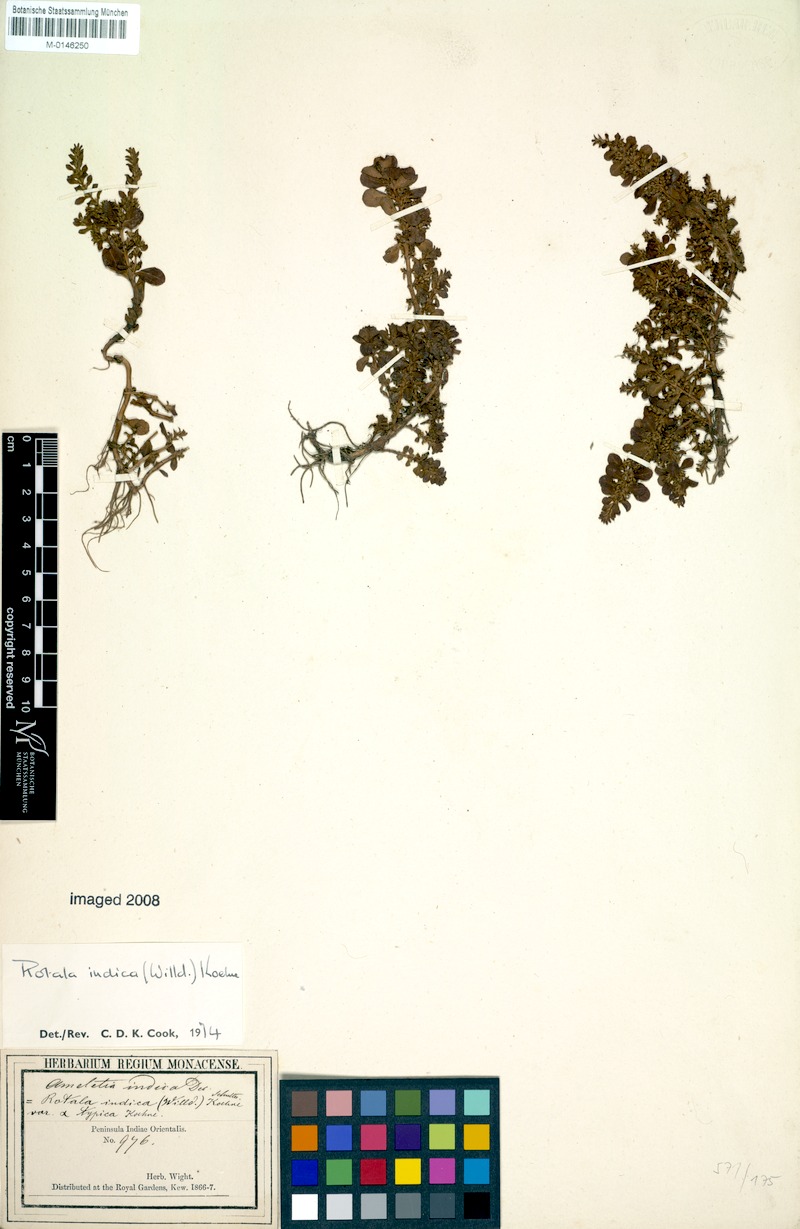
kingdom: Plantae
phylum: Tracheophyta
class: Magnoliopsida
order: Myrtales
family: Lythraceae
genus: Rotala
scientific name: Rotala indica
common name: Indian toothcup
